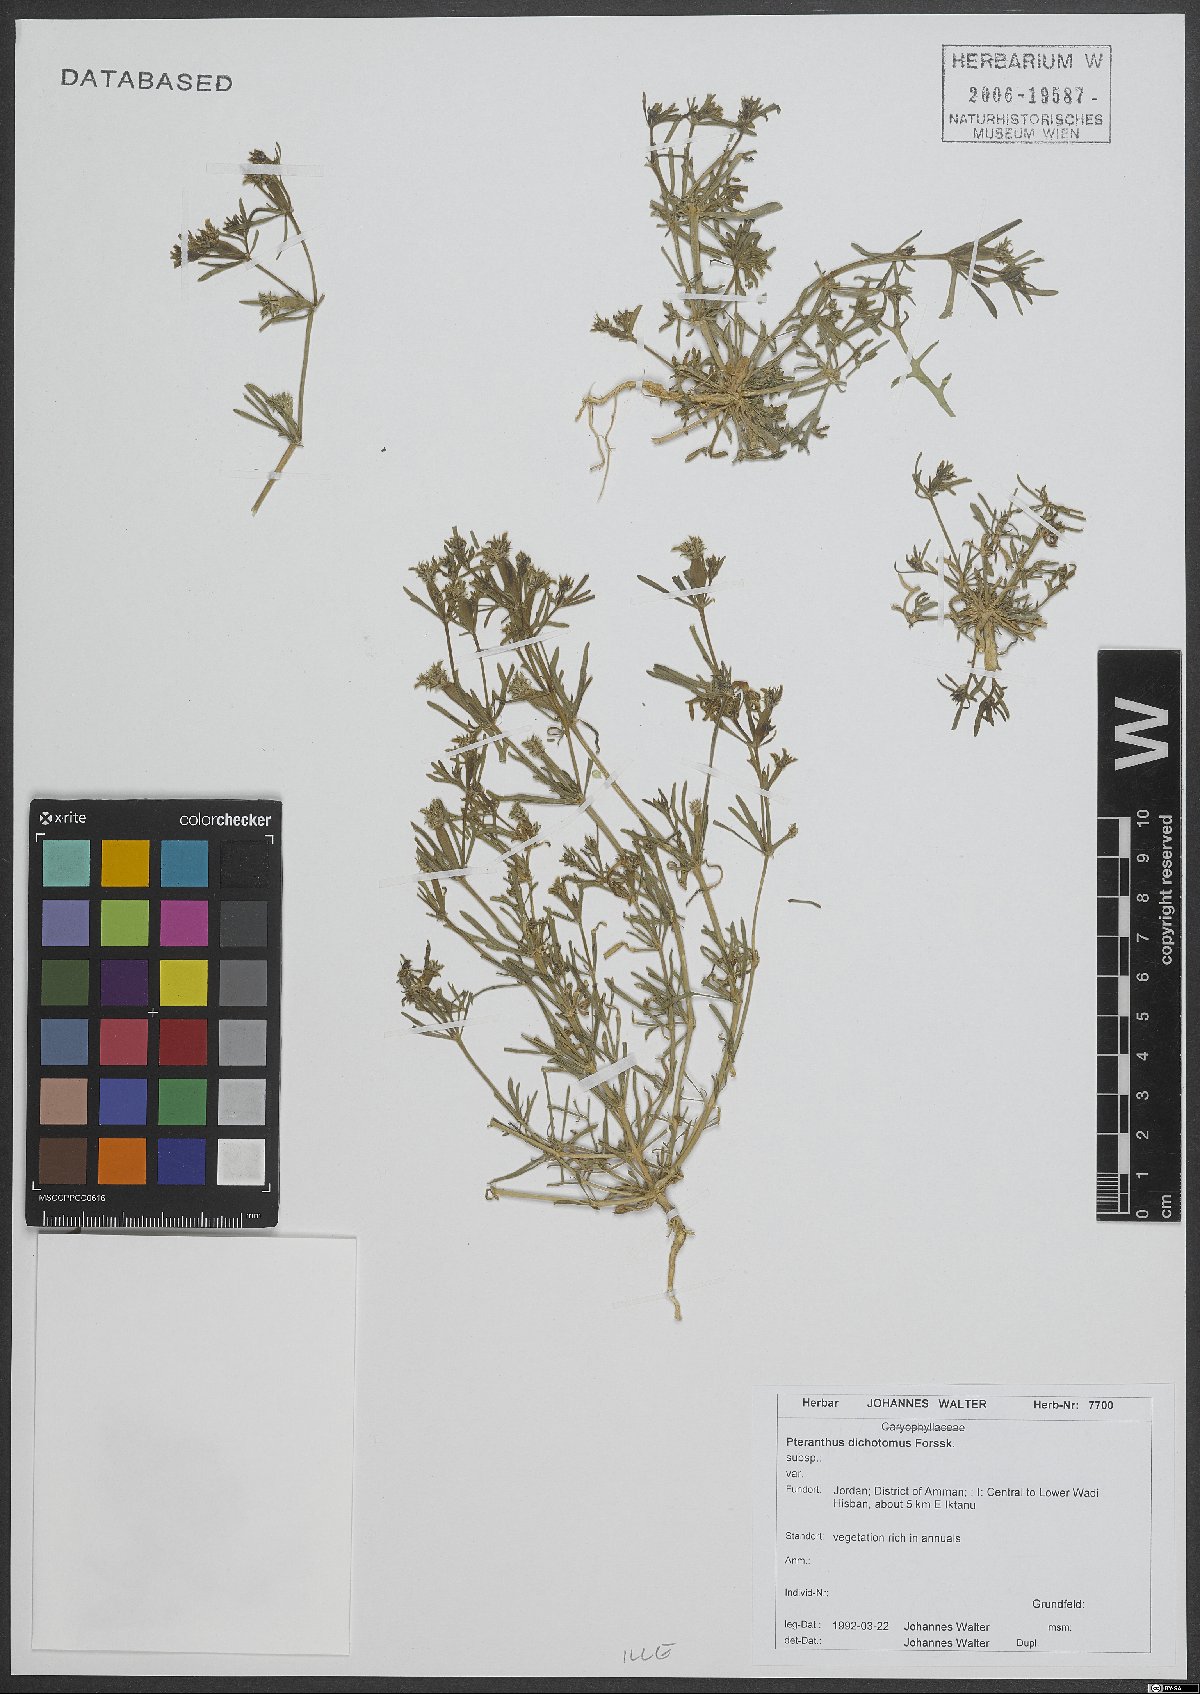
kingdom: Plantae
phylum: Tracheophyta
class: Magnoliopsida
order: Caryophyllales
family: Caryophyllaceae
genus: Pteranthus
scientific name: Pteranthus dichotomus
